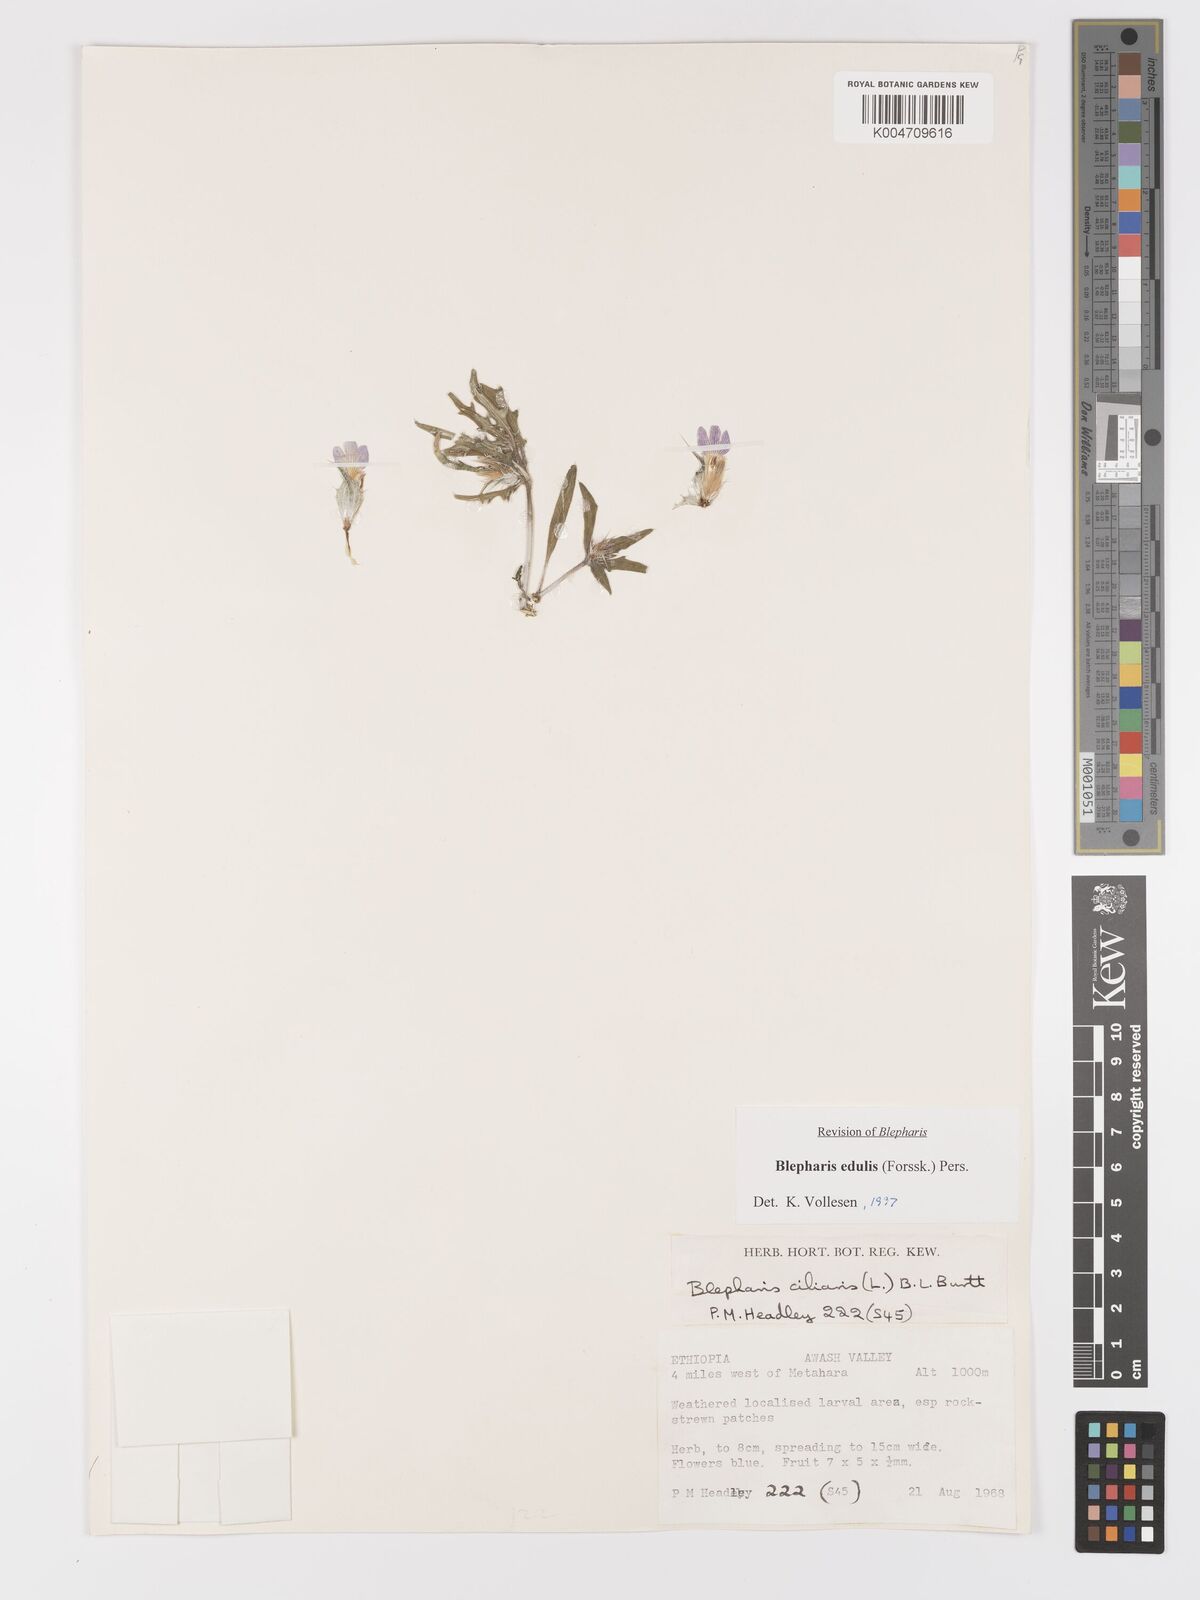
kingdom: Plantae
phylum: Tracheophyta
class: Magnoliopsida
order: Lamiales
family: Acanthaceae
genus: Blepharis
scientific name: Blepharis edulis
